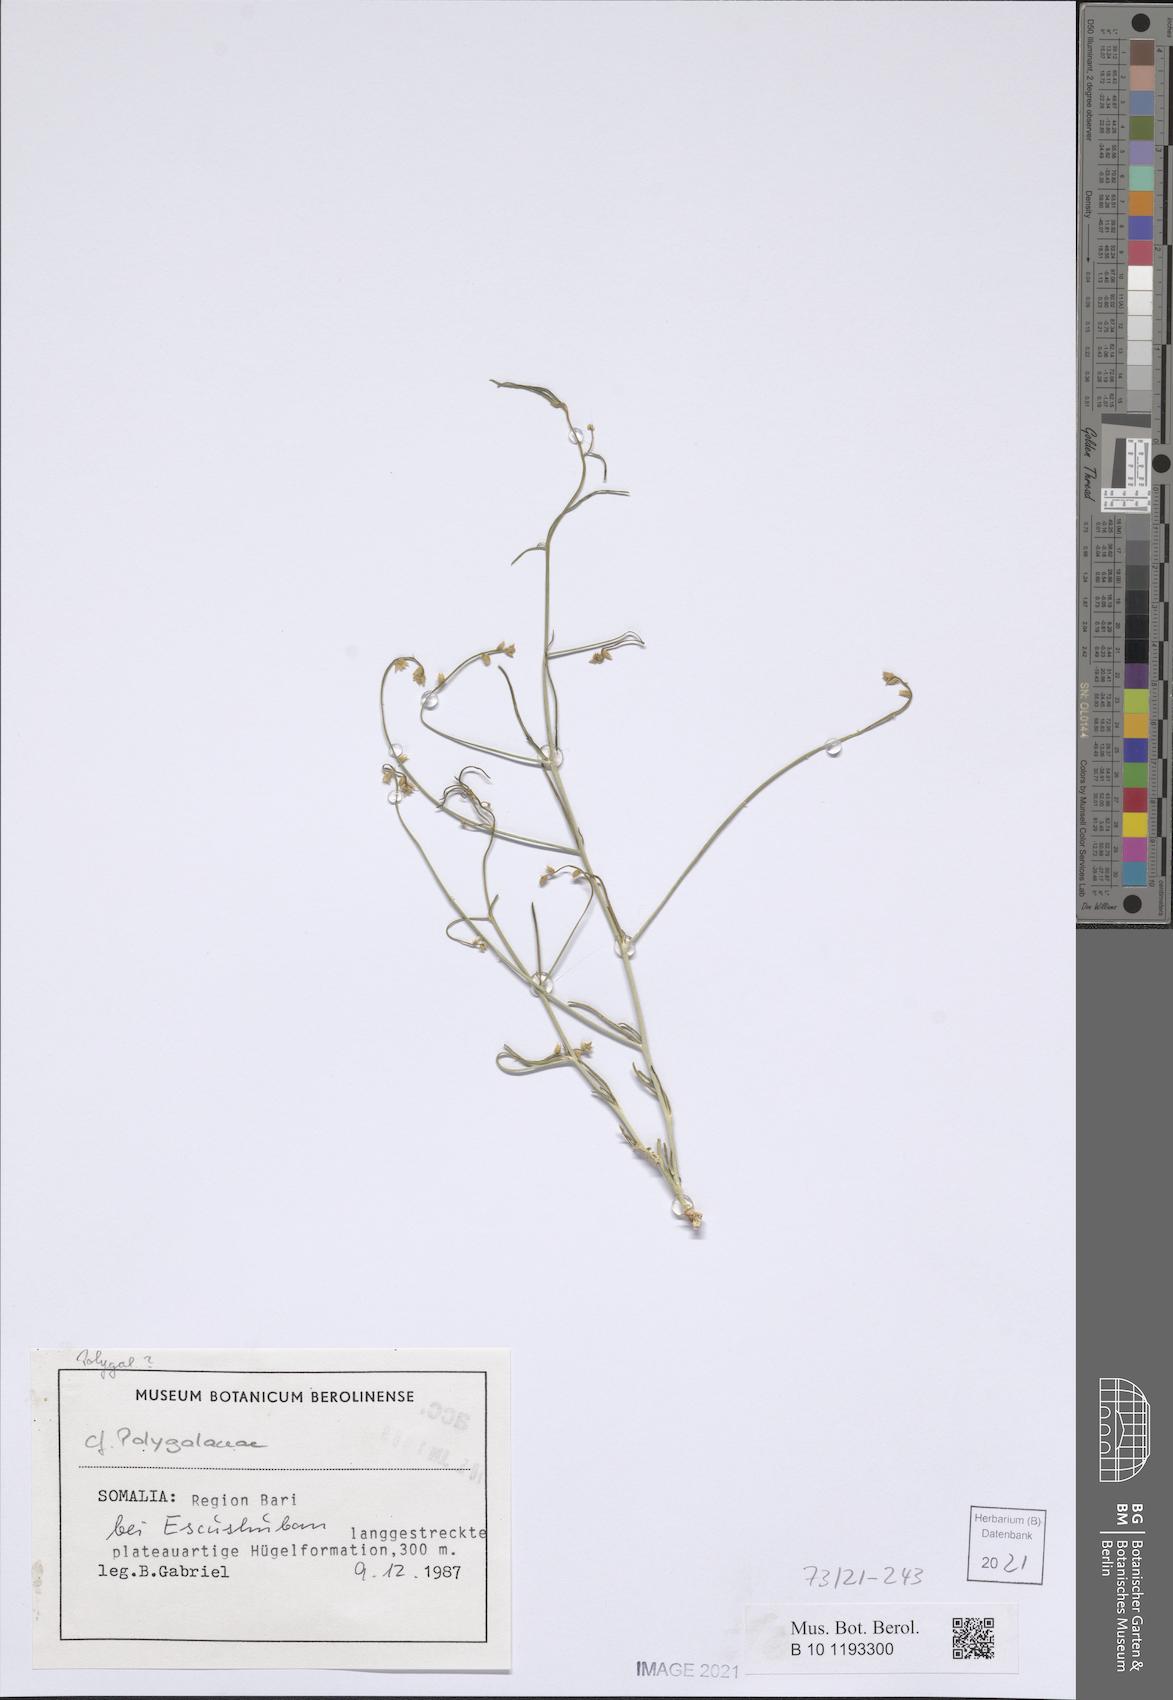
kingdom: Plantae
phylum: Tracheophyta
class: Magnoliopsida
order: Fabales
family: Polygalaceae
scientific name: Polygalaceae
